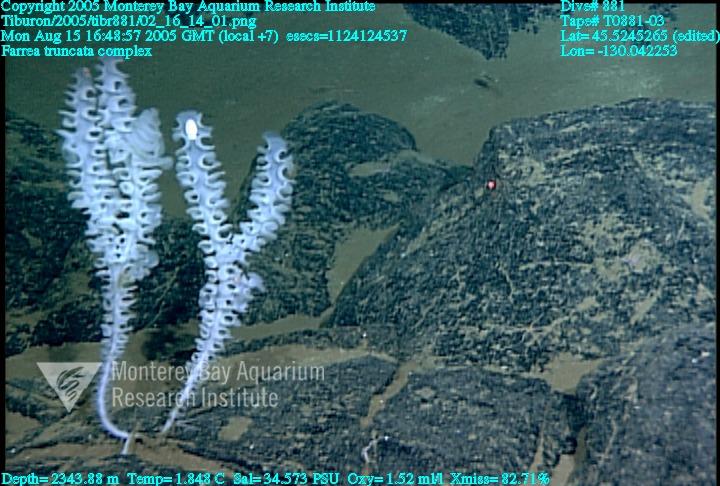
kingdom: Animalia
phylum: Porifera
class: Hexactinellida
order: Sceptrulophora
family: Farreidae
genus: Farrea
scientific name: Farrea truncata
